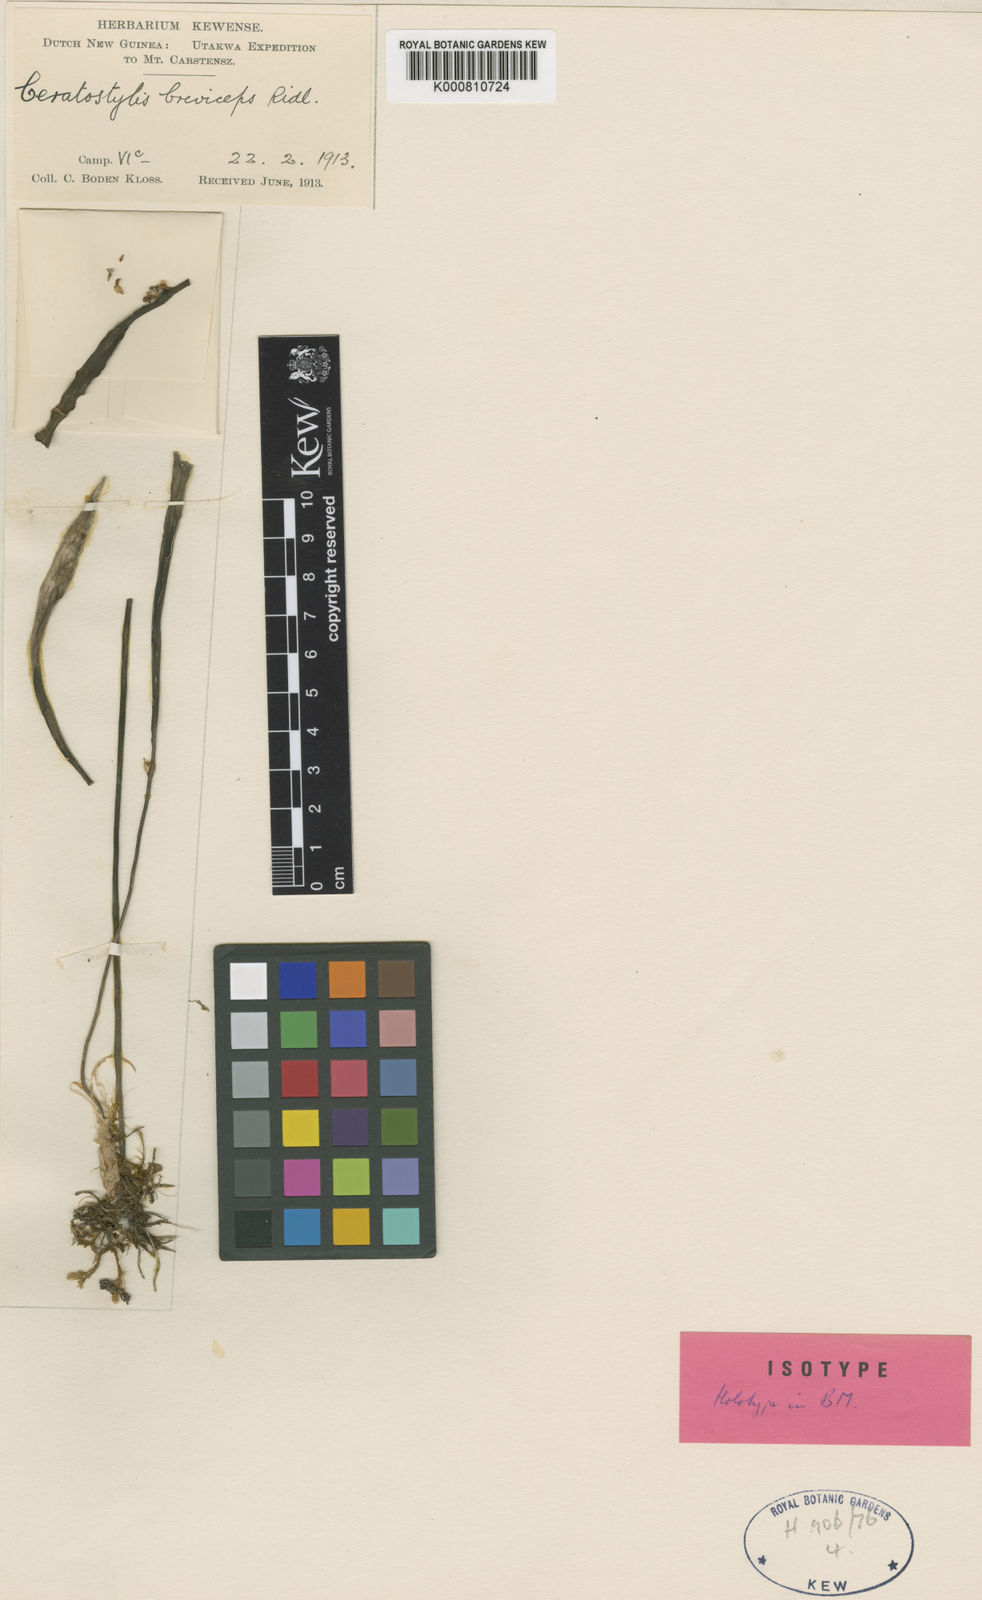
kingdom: Plantae
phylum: Tracheophyta
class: Liliopsida
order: Asparagales
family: Orchidaceae
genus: Ceratostylis
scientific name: Ceratostylis breviceps
